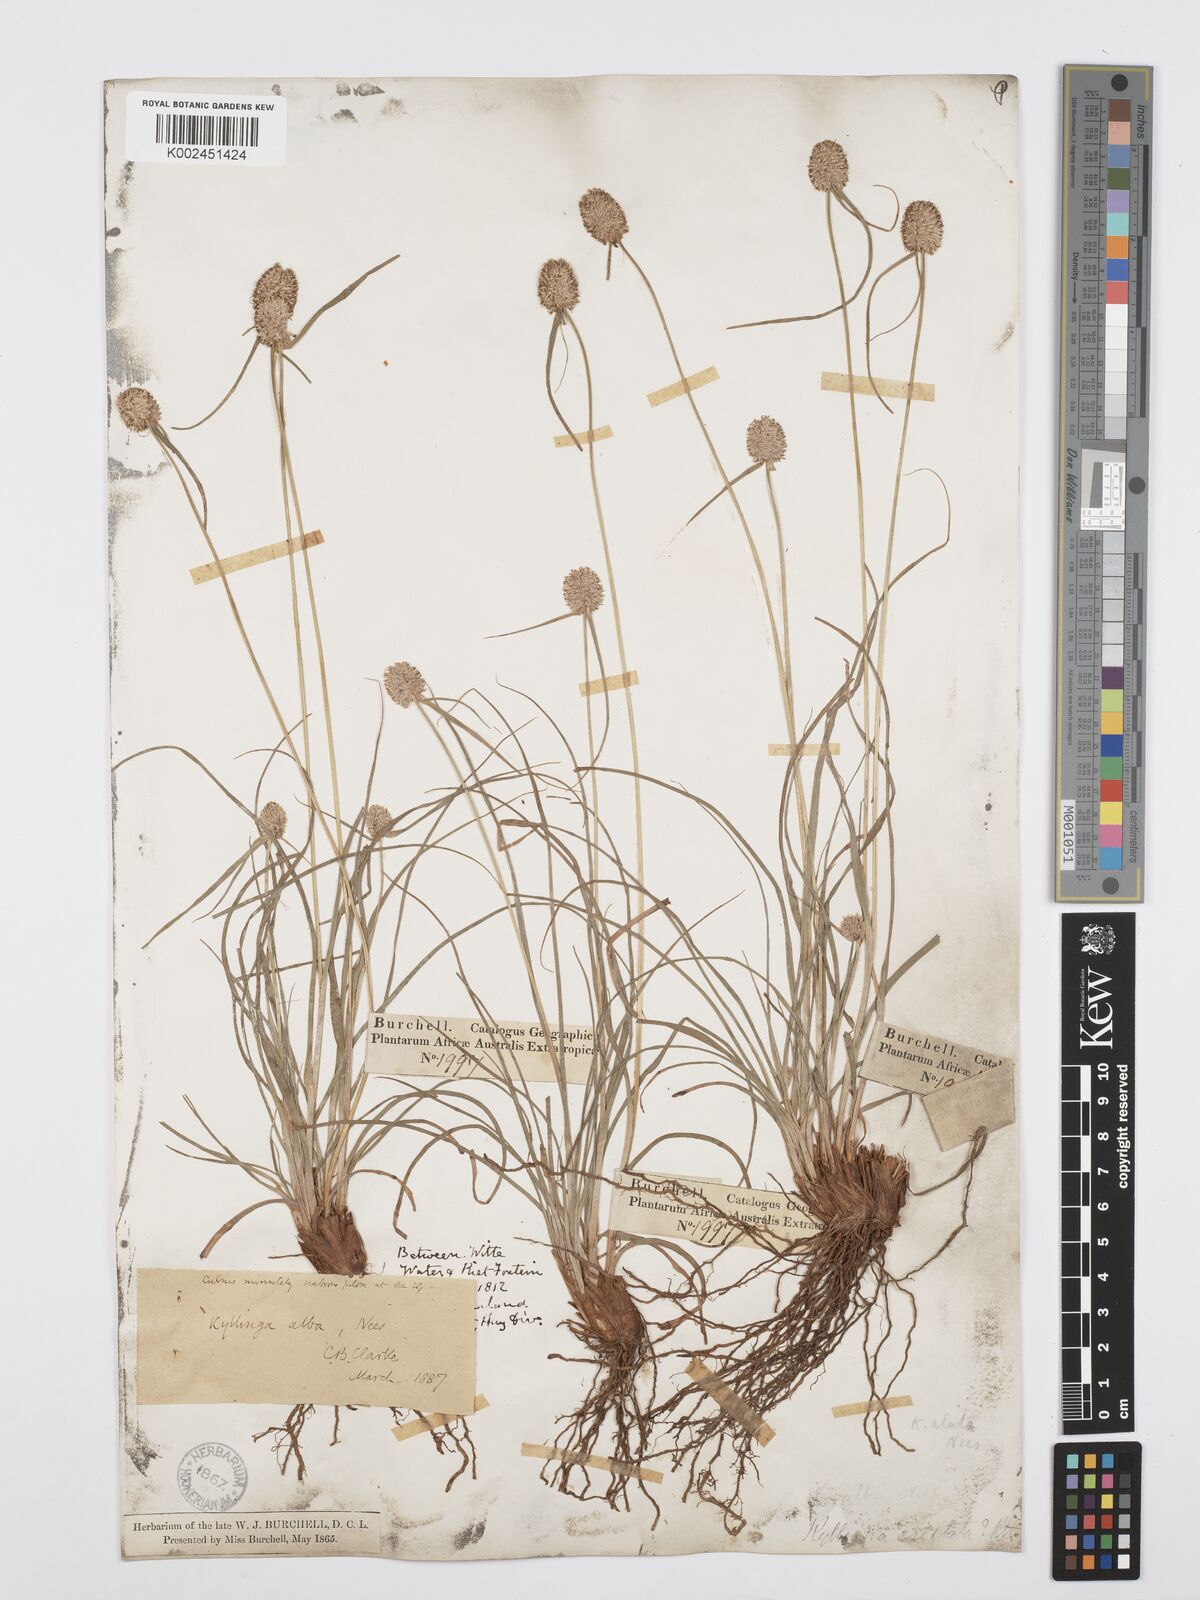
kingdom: Plantae
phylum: Tracheophyta
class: Liliopsida
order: Poales
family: Cyperaceae
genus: Cyperus
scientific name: Cyperus alatus
